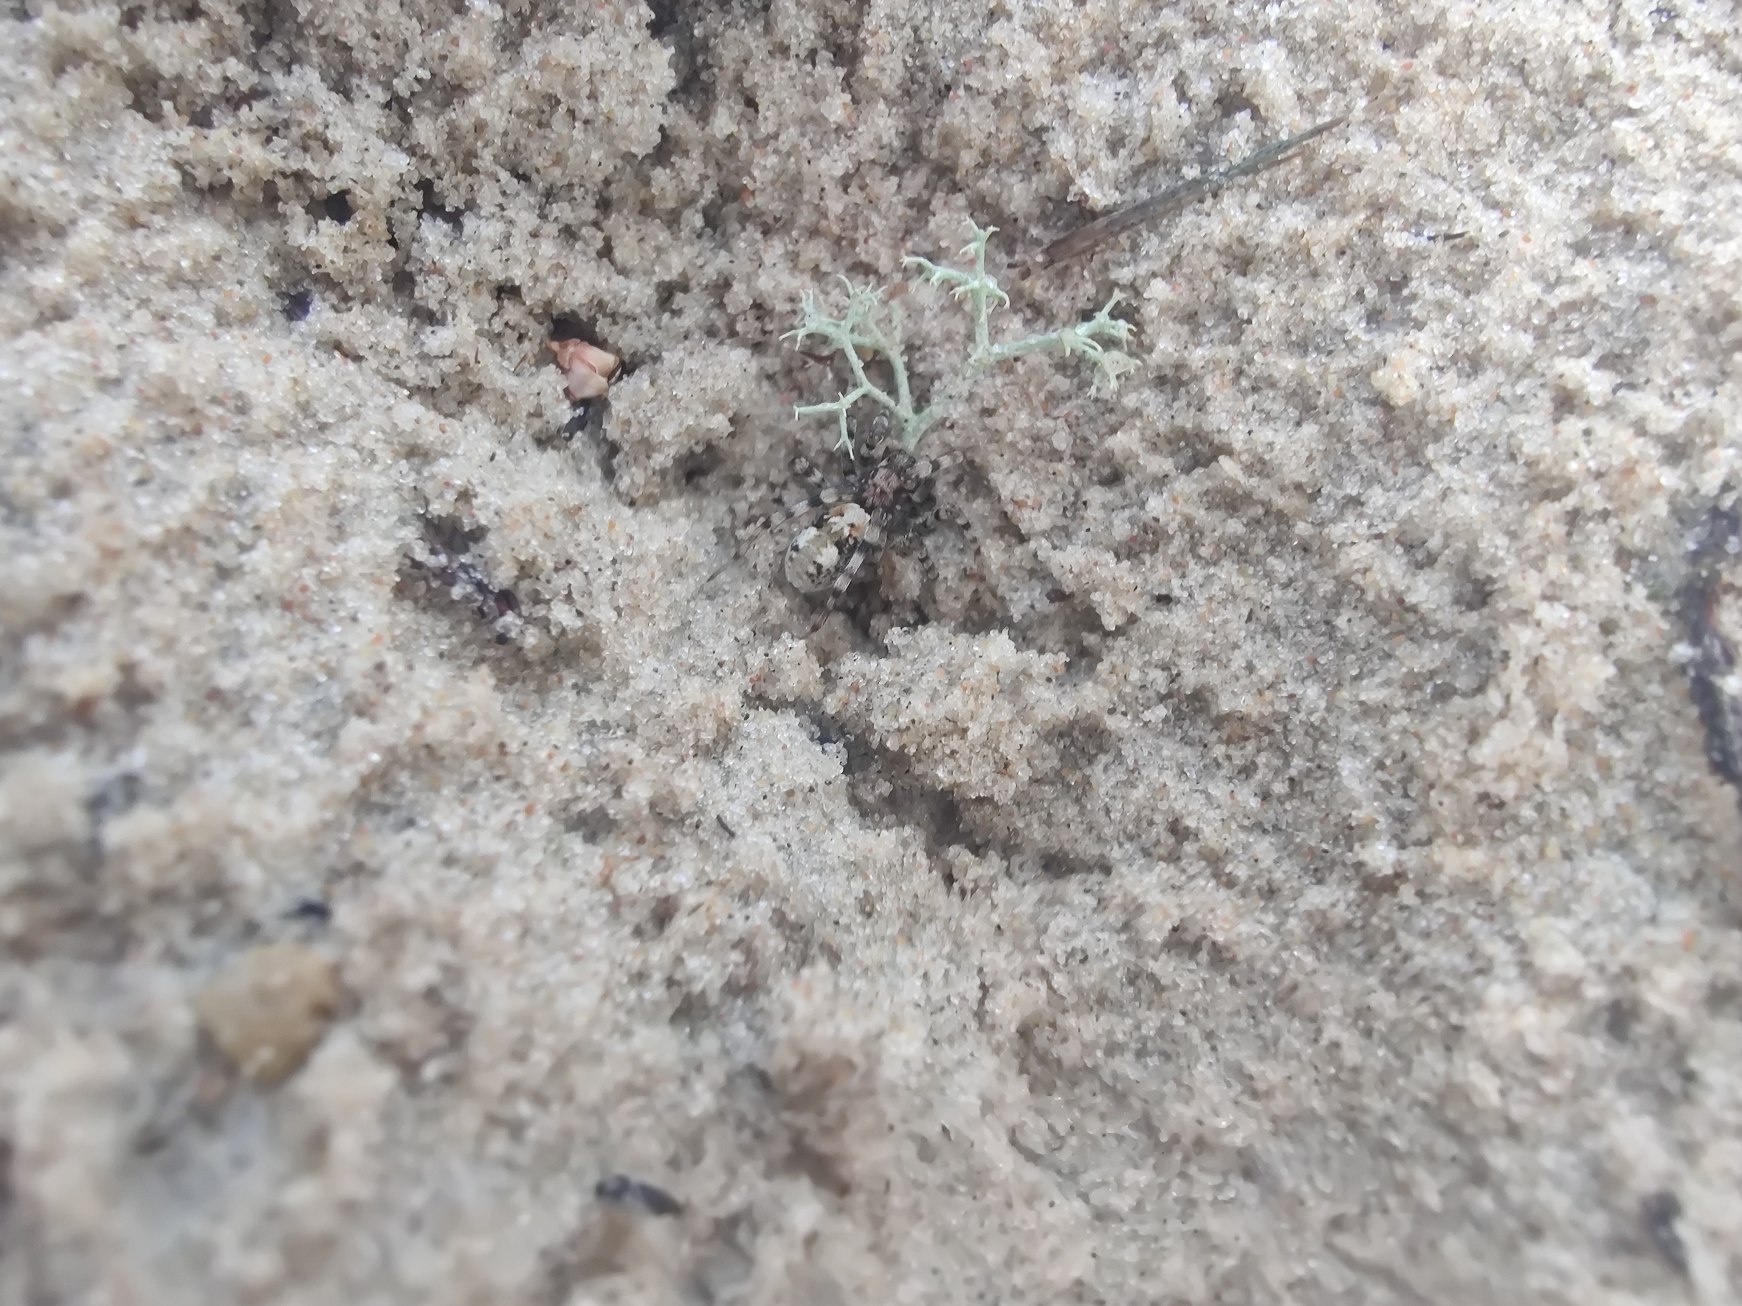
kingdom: Animalia
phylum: Arthropoda
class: Arachnida
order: Araneae
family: Lycosidae
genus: Arctosa
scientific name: Arctosa perita
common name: Klitgraveedderkop
